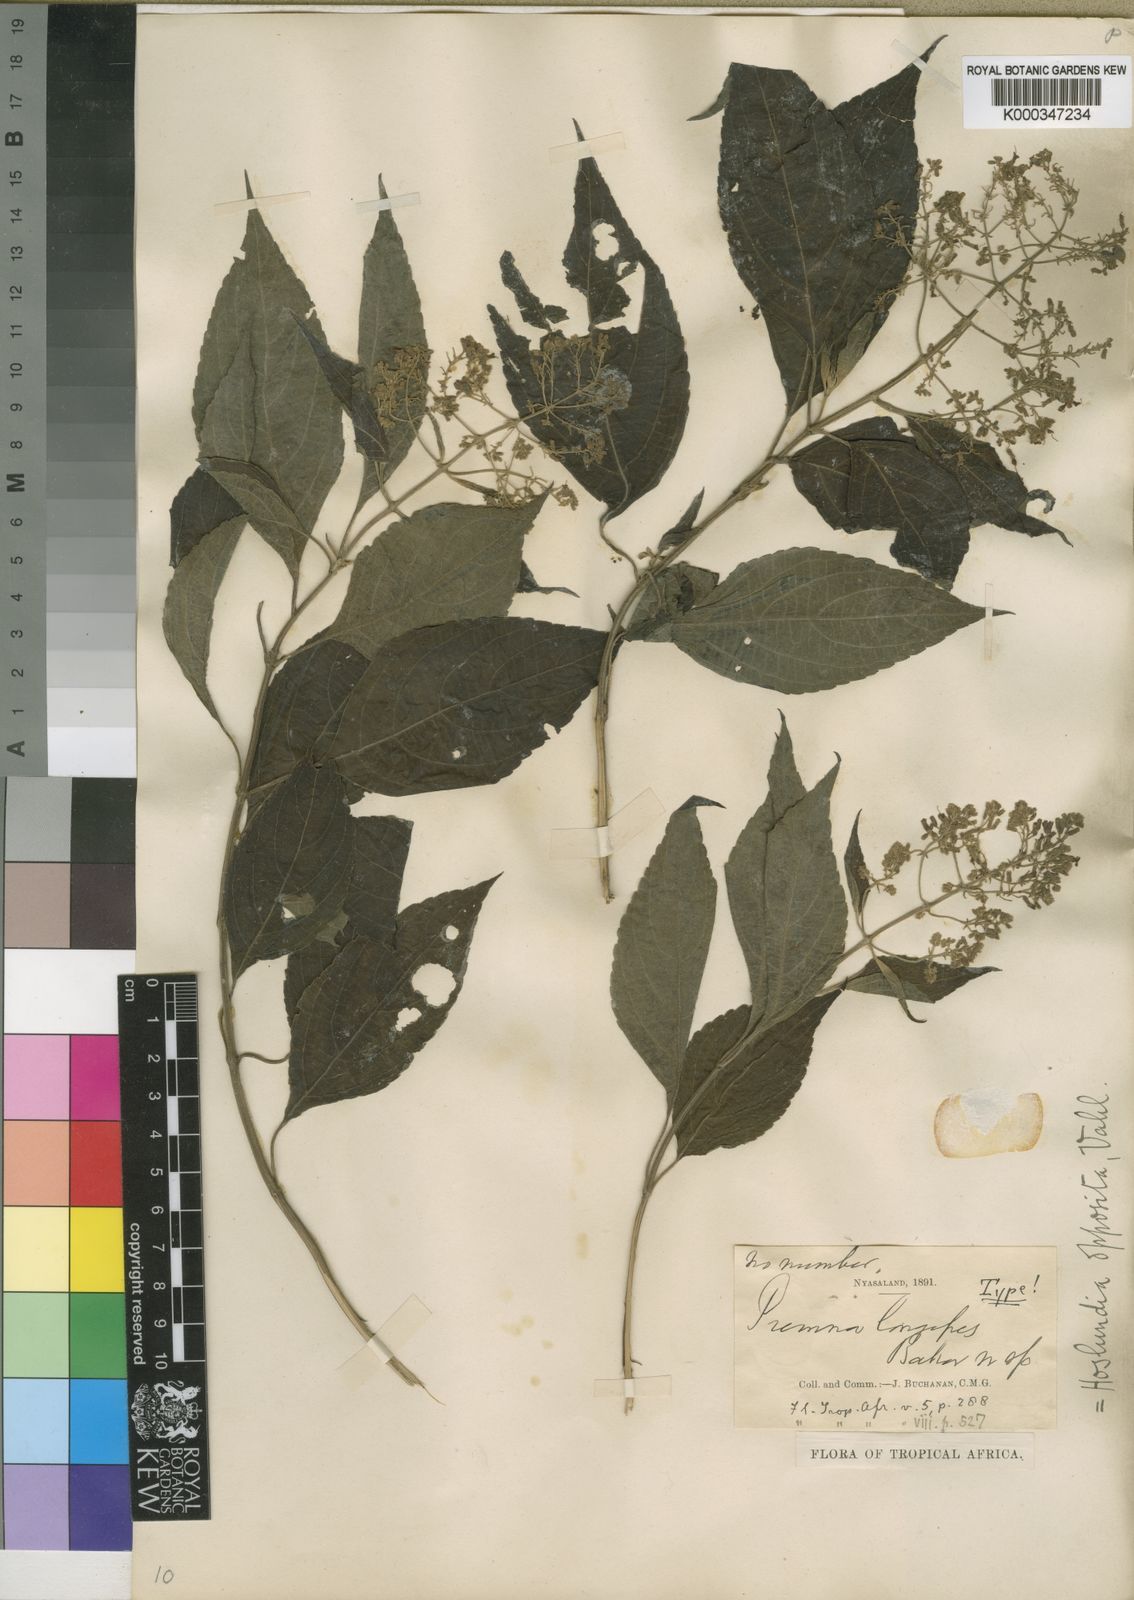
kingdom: Plantae
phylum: Tracheophyta
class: Magnoliopsida
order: Lamiales
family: Lamiaceae
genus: Hoslundia
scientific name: Hoslundia opposita
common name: Kamyuye
